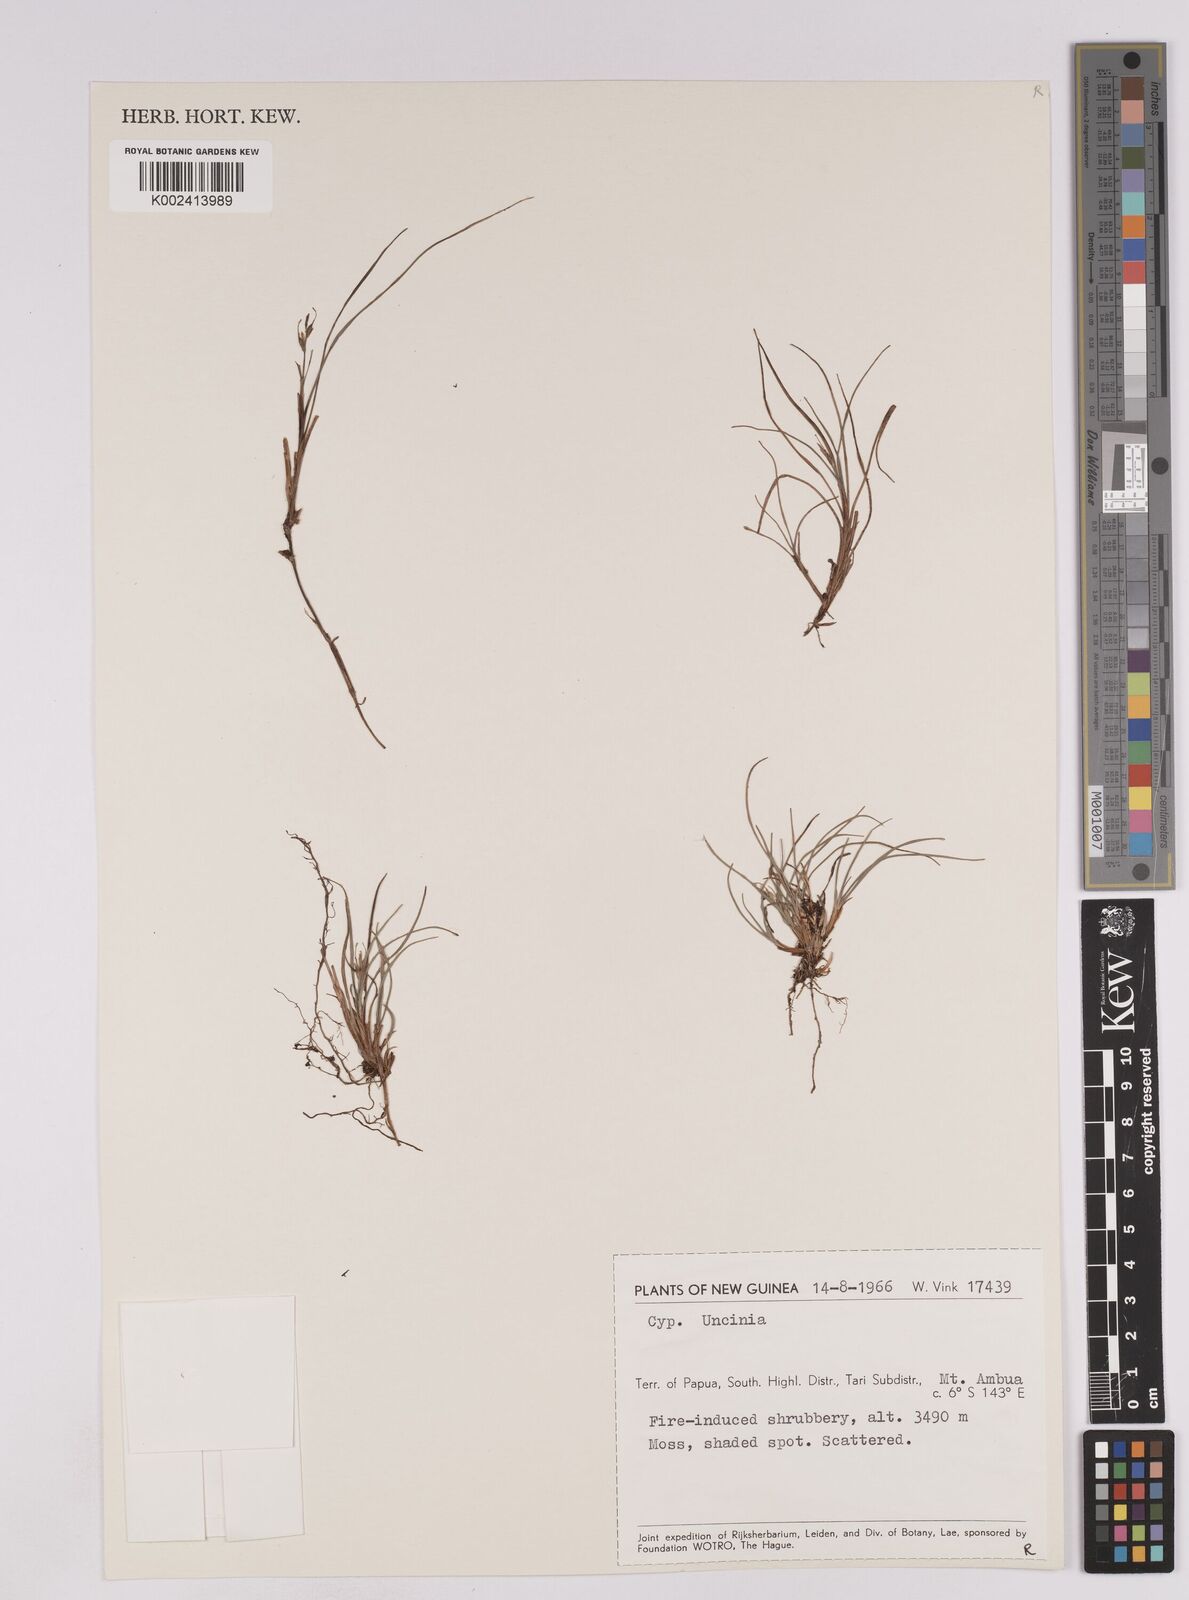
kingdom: Plantae
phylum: Tracheophyta
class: Liliopsida
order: Poales
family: Cyperaceae
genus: Carex
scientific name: Carex austrocompacta
